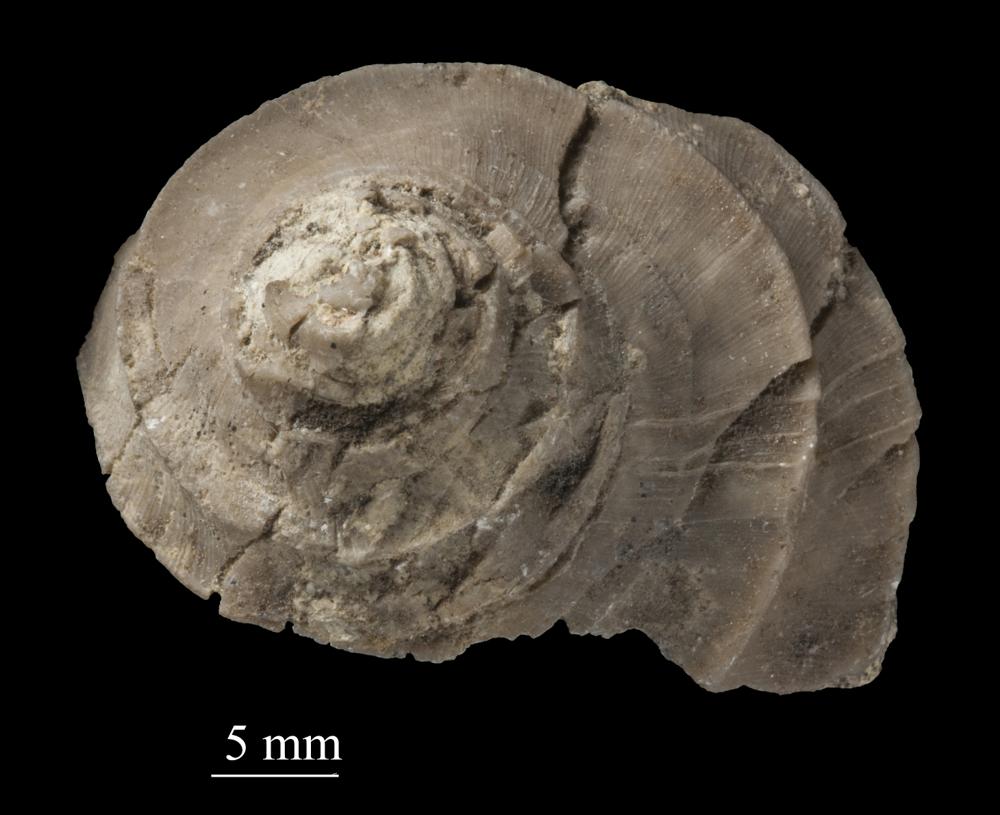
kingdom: Animalia
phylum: Mollusca
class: Gastropoda
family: Platyceratidae
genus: Cyclonema
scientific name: Cyclonema Turbo rupestre
